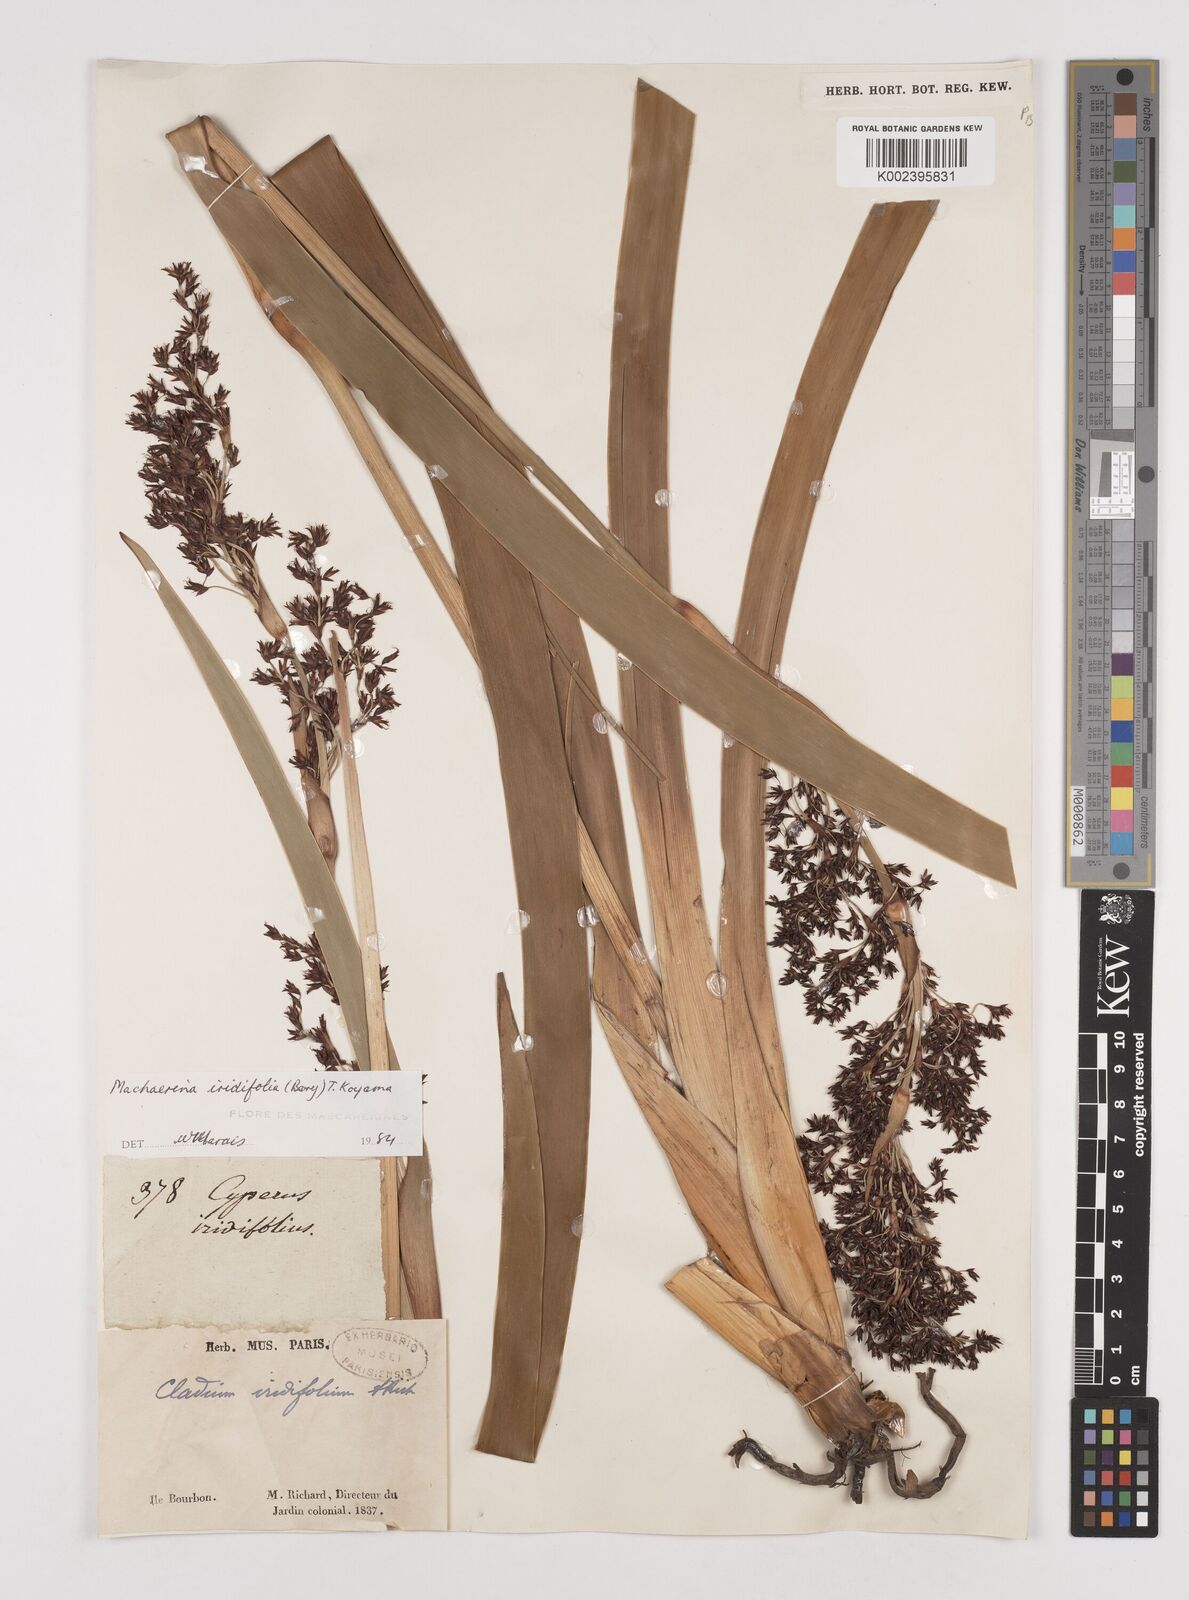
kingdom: Plantae
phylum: Tracheophyta
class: Liliopsida
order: Poales
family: Cyperaceae
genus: Machaerina
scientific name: Machaerina iridifolia
